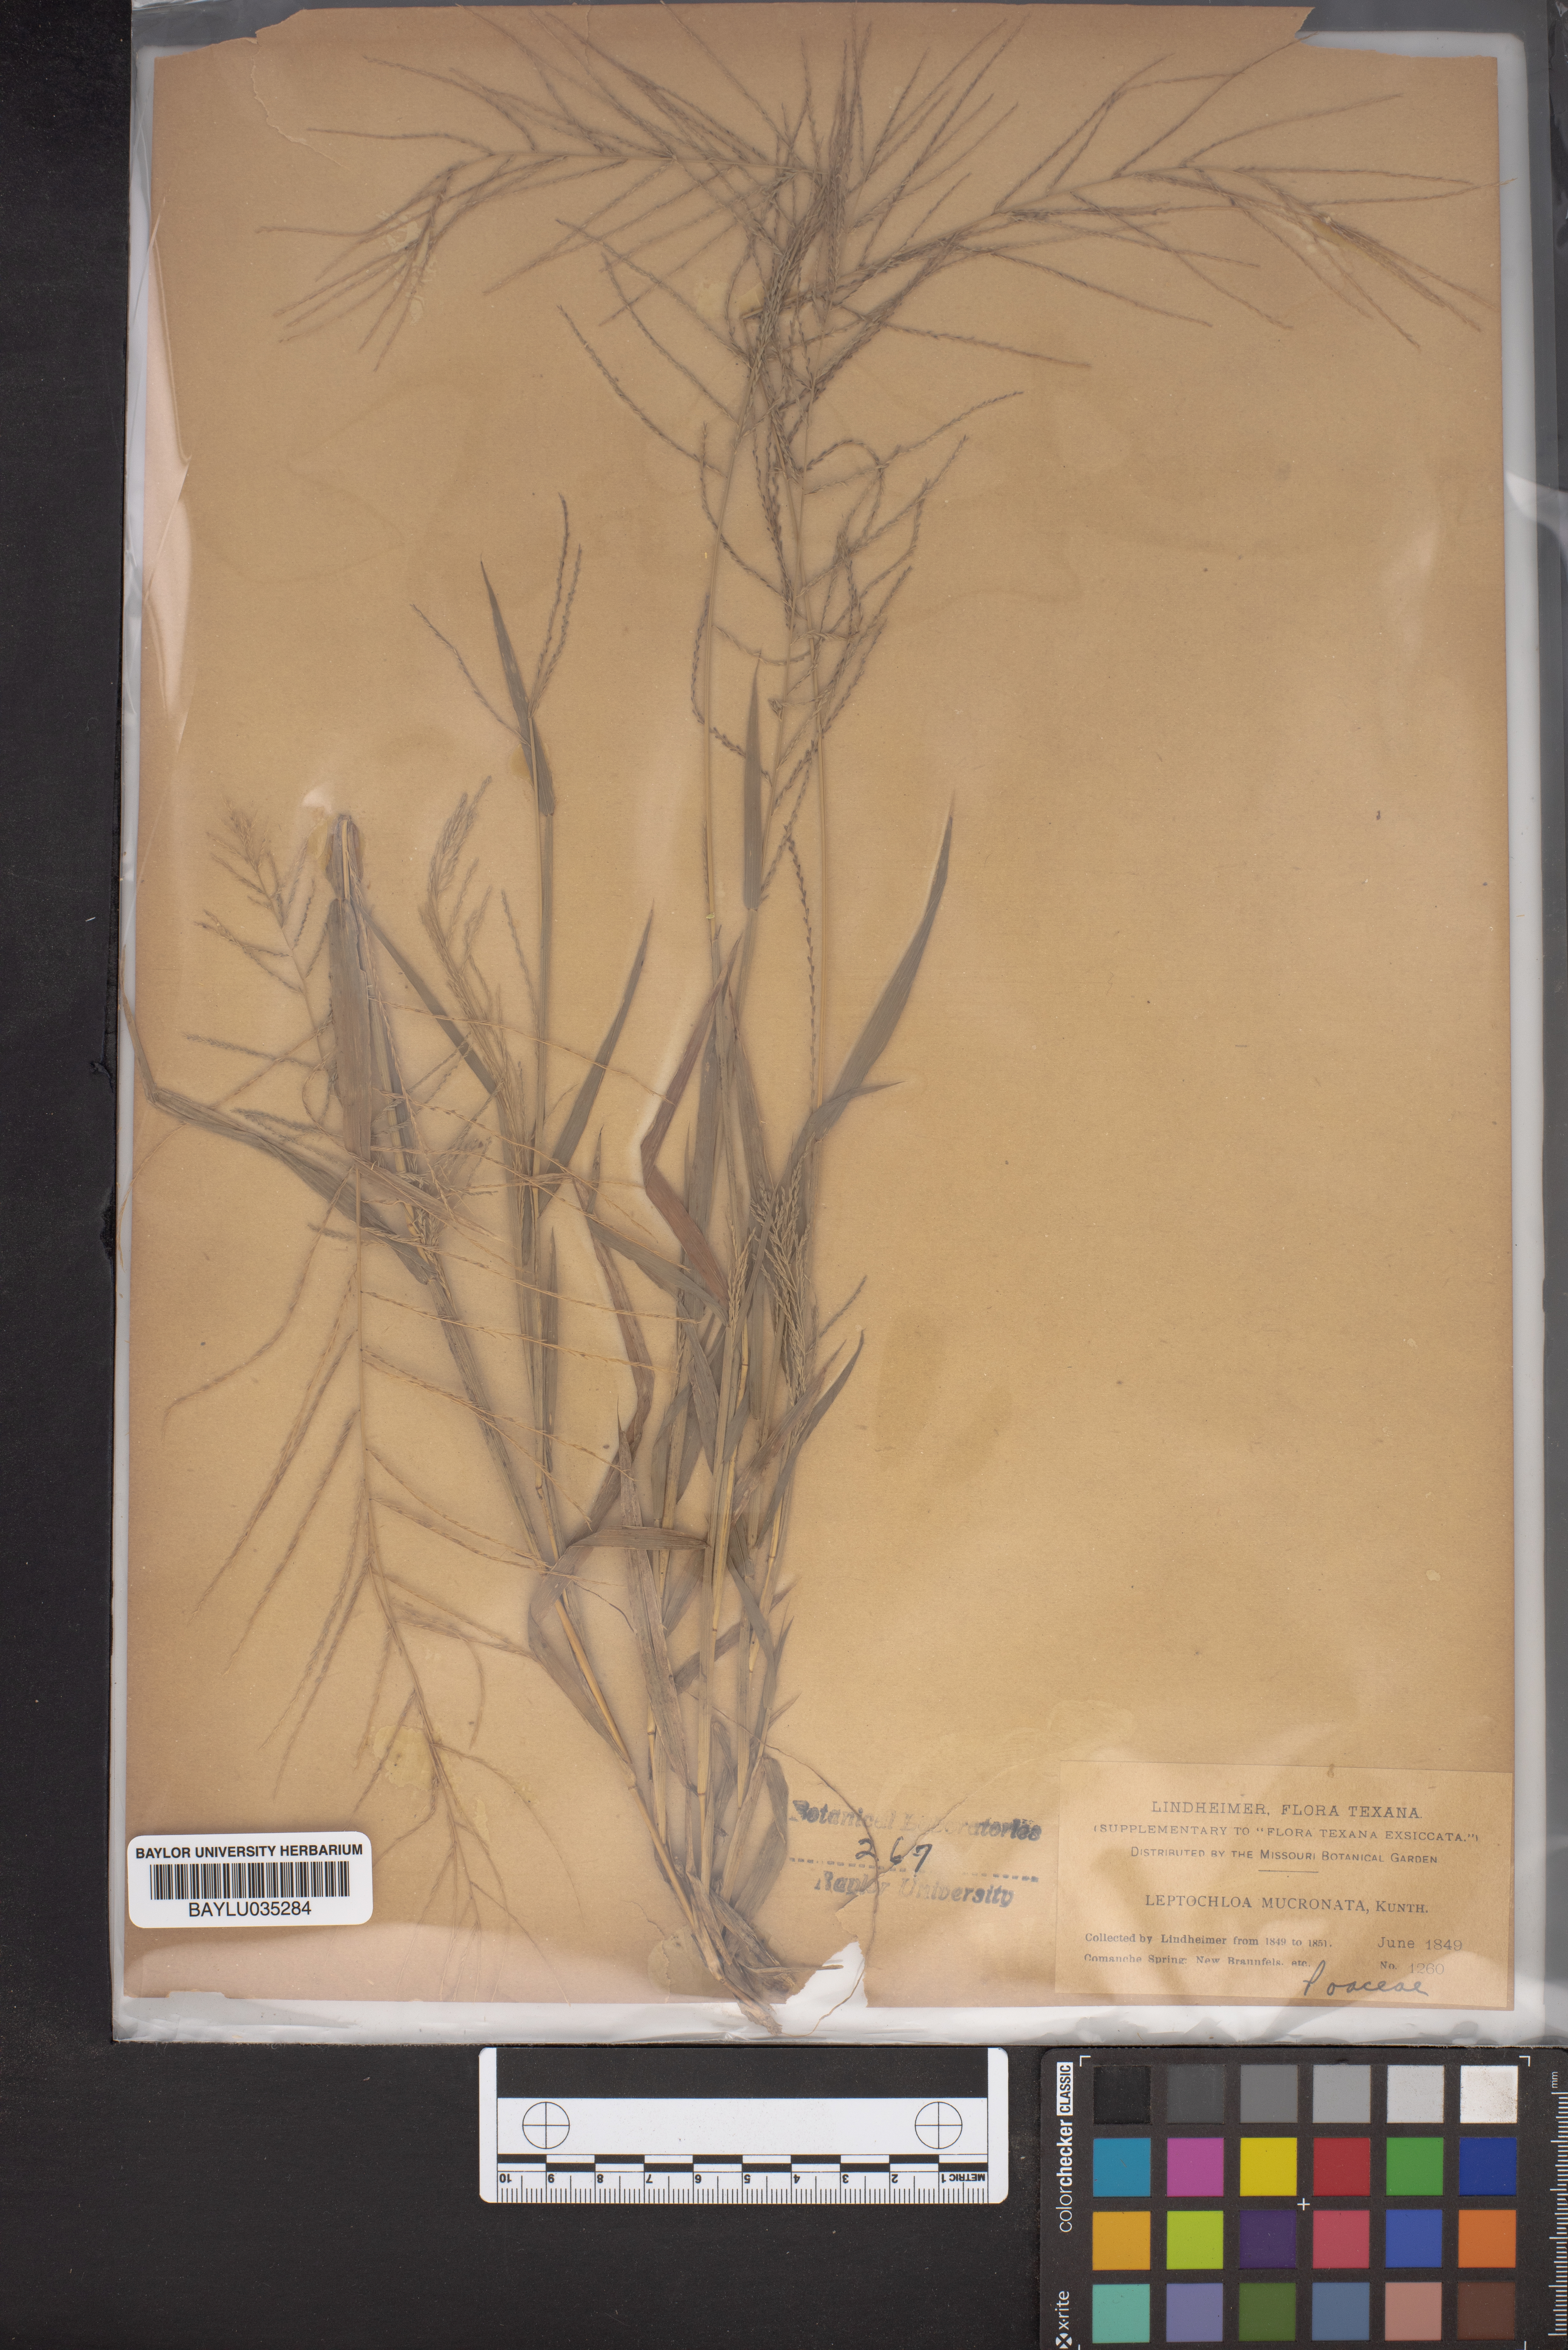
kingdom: Plantae
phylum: Tracheophyta
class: Liliopsida
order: Poales
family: Poaceae
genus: Leptochloa
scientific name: Leptochloa mucronata
